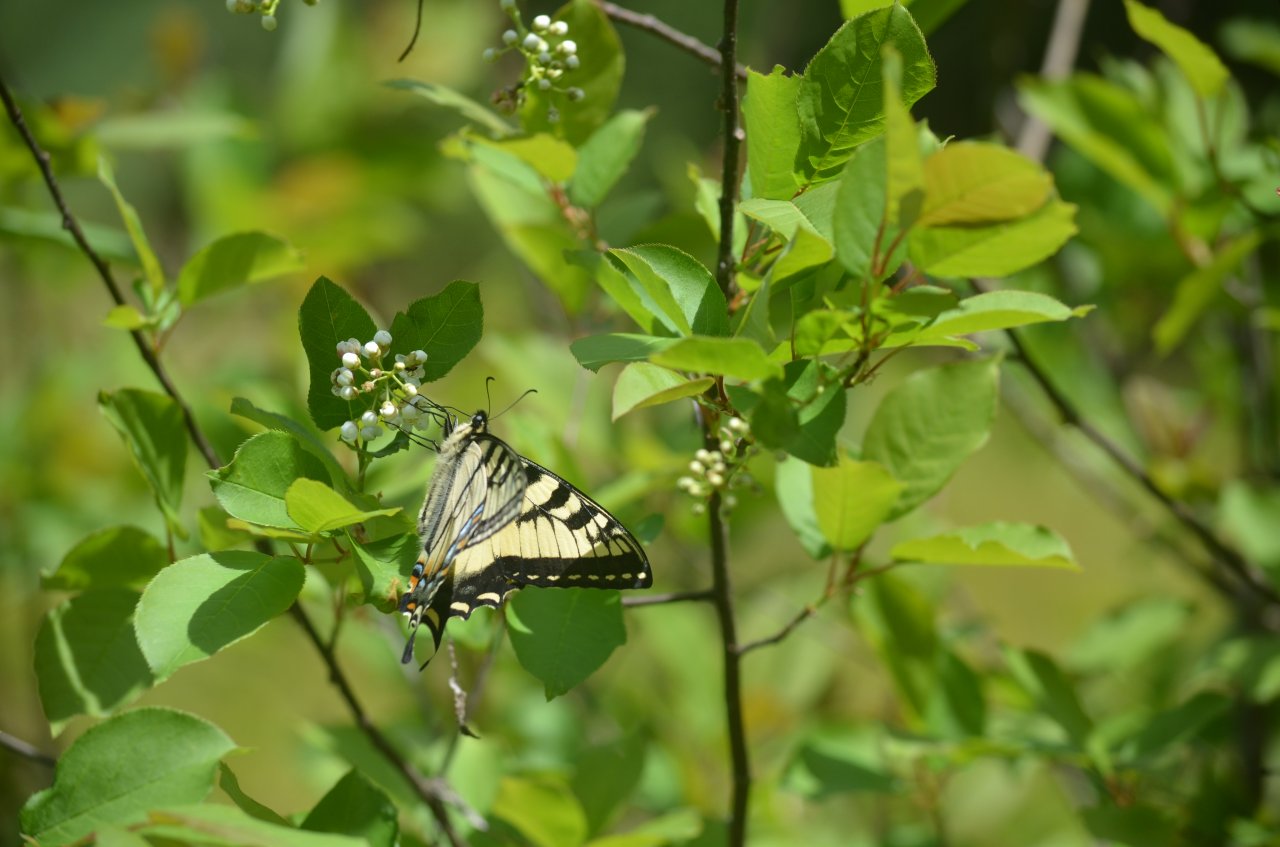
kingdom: Animalia
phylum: Arthropoda
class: Insecta
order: Lepidoptera
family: Papilionidae
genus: Pterourus
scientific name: Pterourus canadensis
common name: Canadian Tiger Swallowtail
